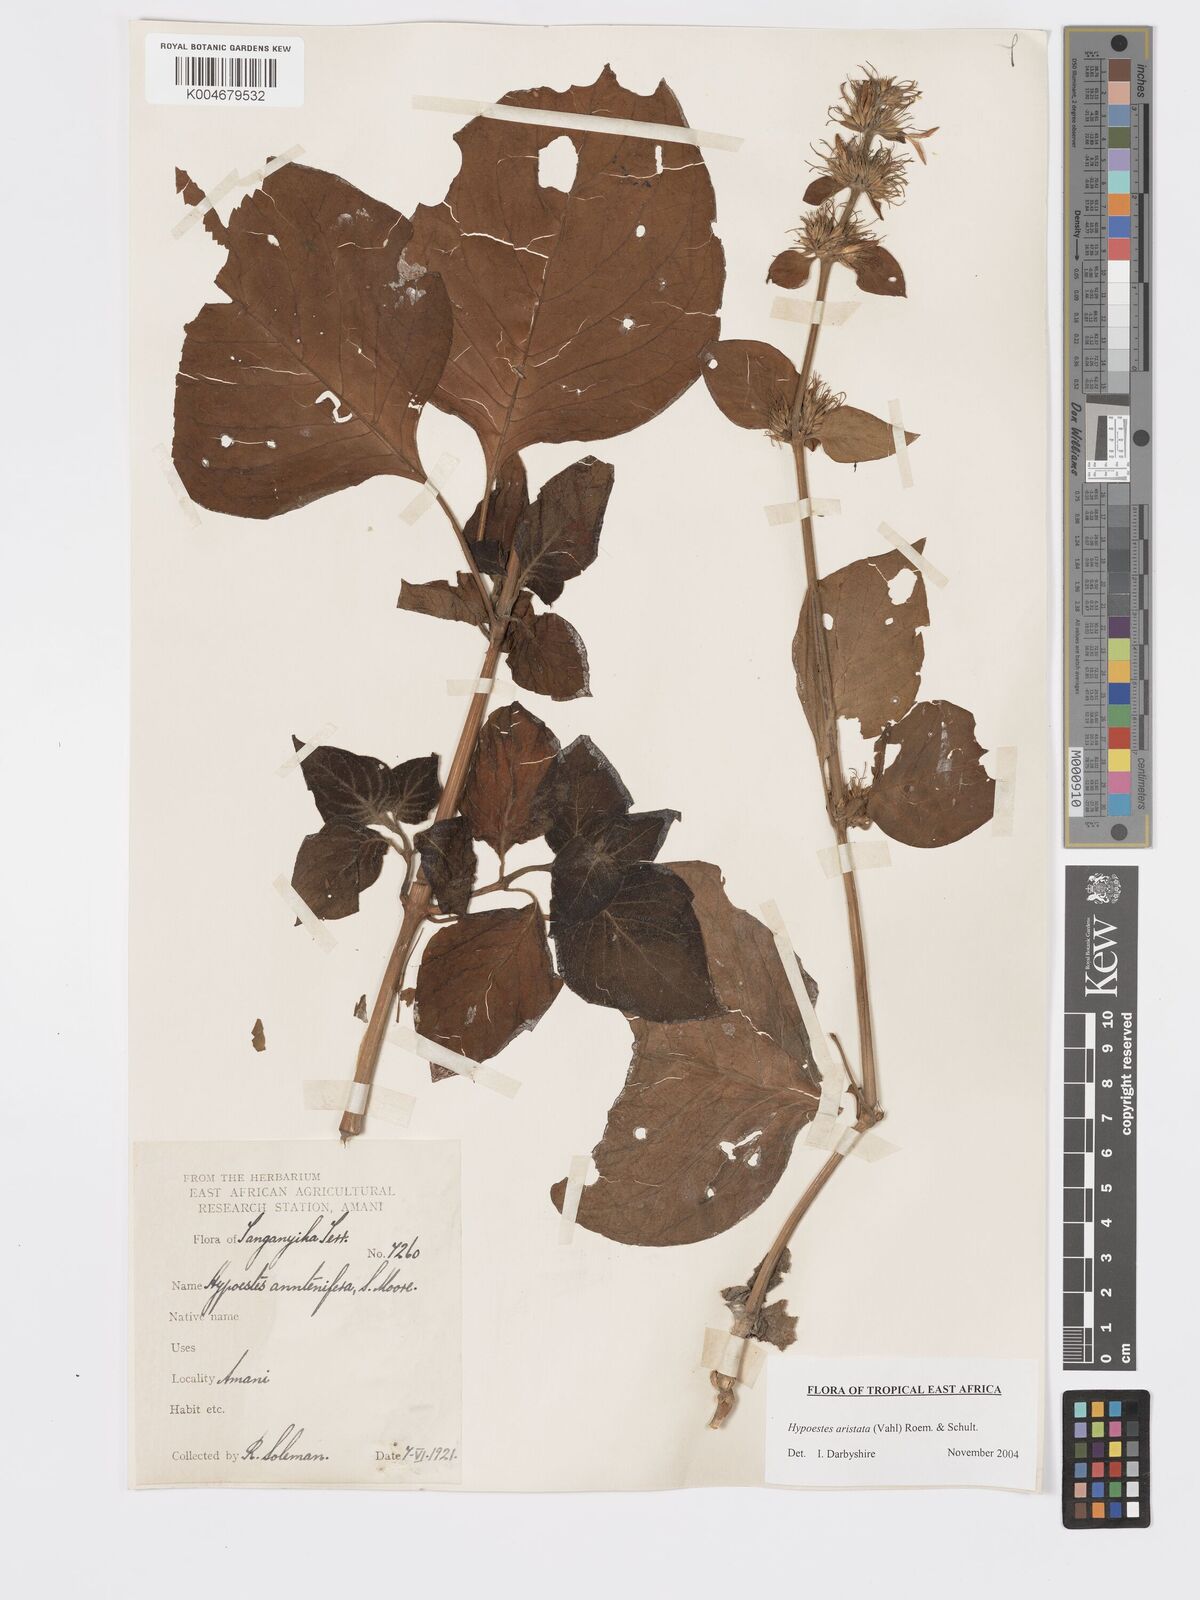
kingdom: Plantae
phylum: Tracheophyta
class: Magnoliopsida
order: Lamiales
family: Acanthaceae
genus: Hypoestes
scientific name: Hypoestes aristata
